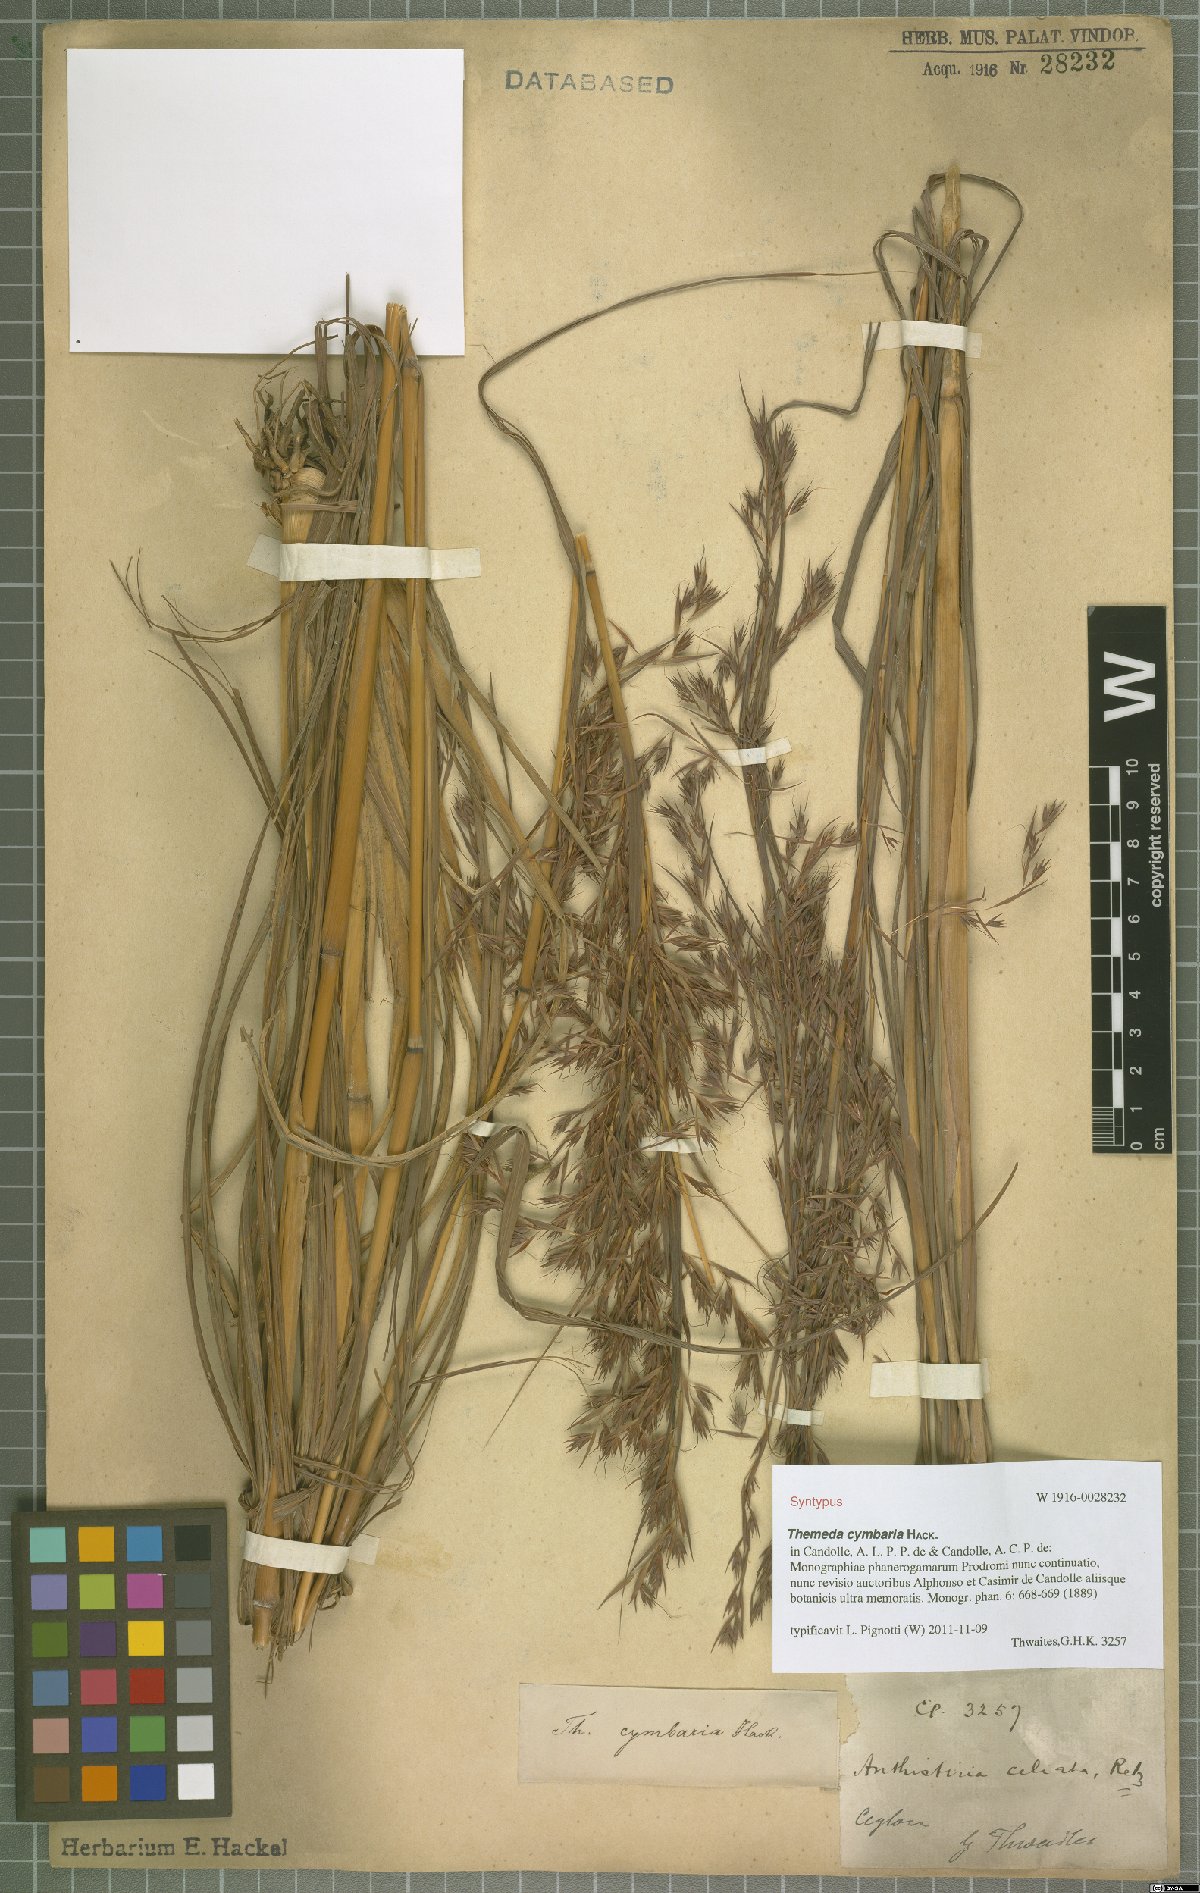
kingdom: Plantae
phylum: Tracheophyta
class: Liliopsida
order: Poales
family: Poaceae
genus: Themeda
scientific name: Themeda cymbaria
